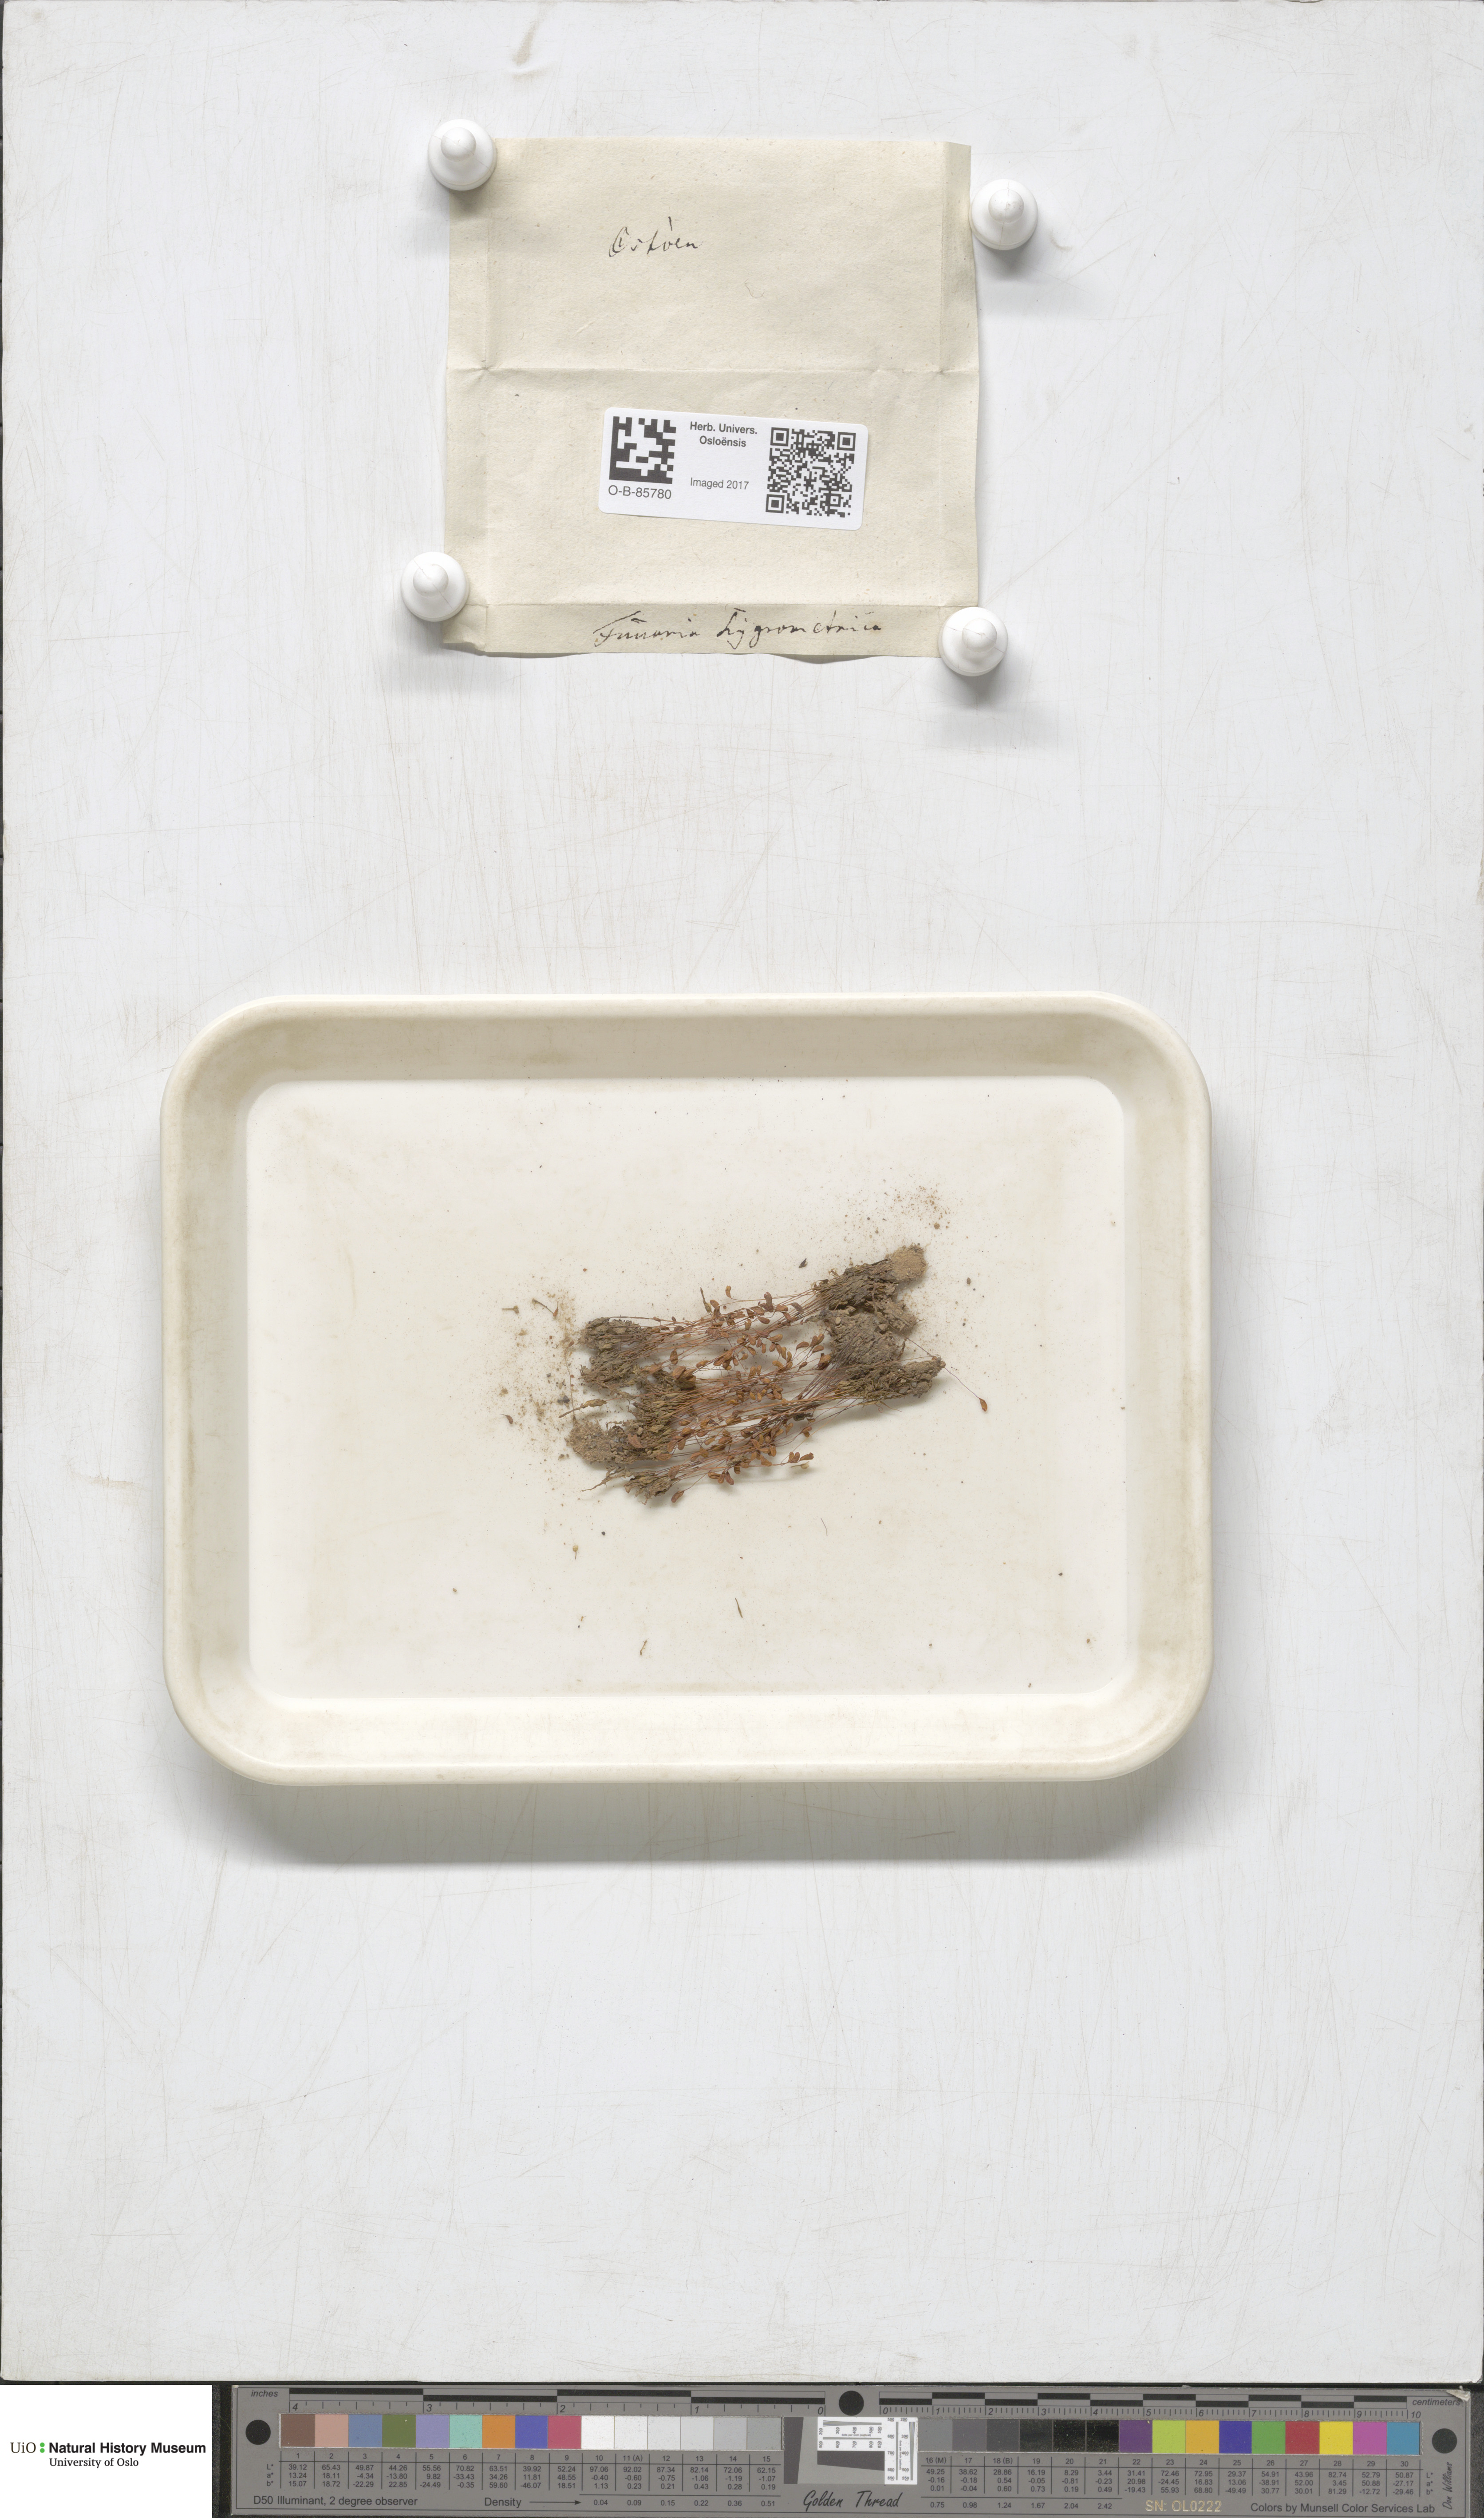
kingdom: Plantae
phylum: Bryophyta
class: Bryopsida
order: Funariales
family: Funariaceae
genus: Funaria
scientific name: Funaria hygrometrica
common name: Common cord moss
